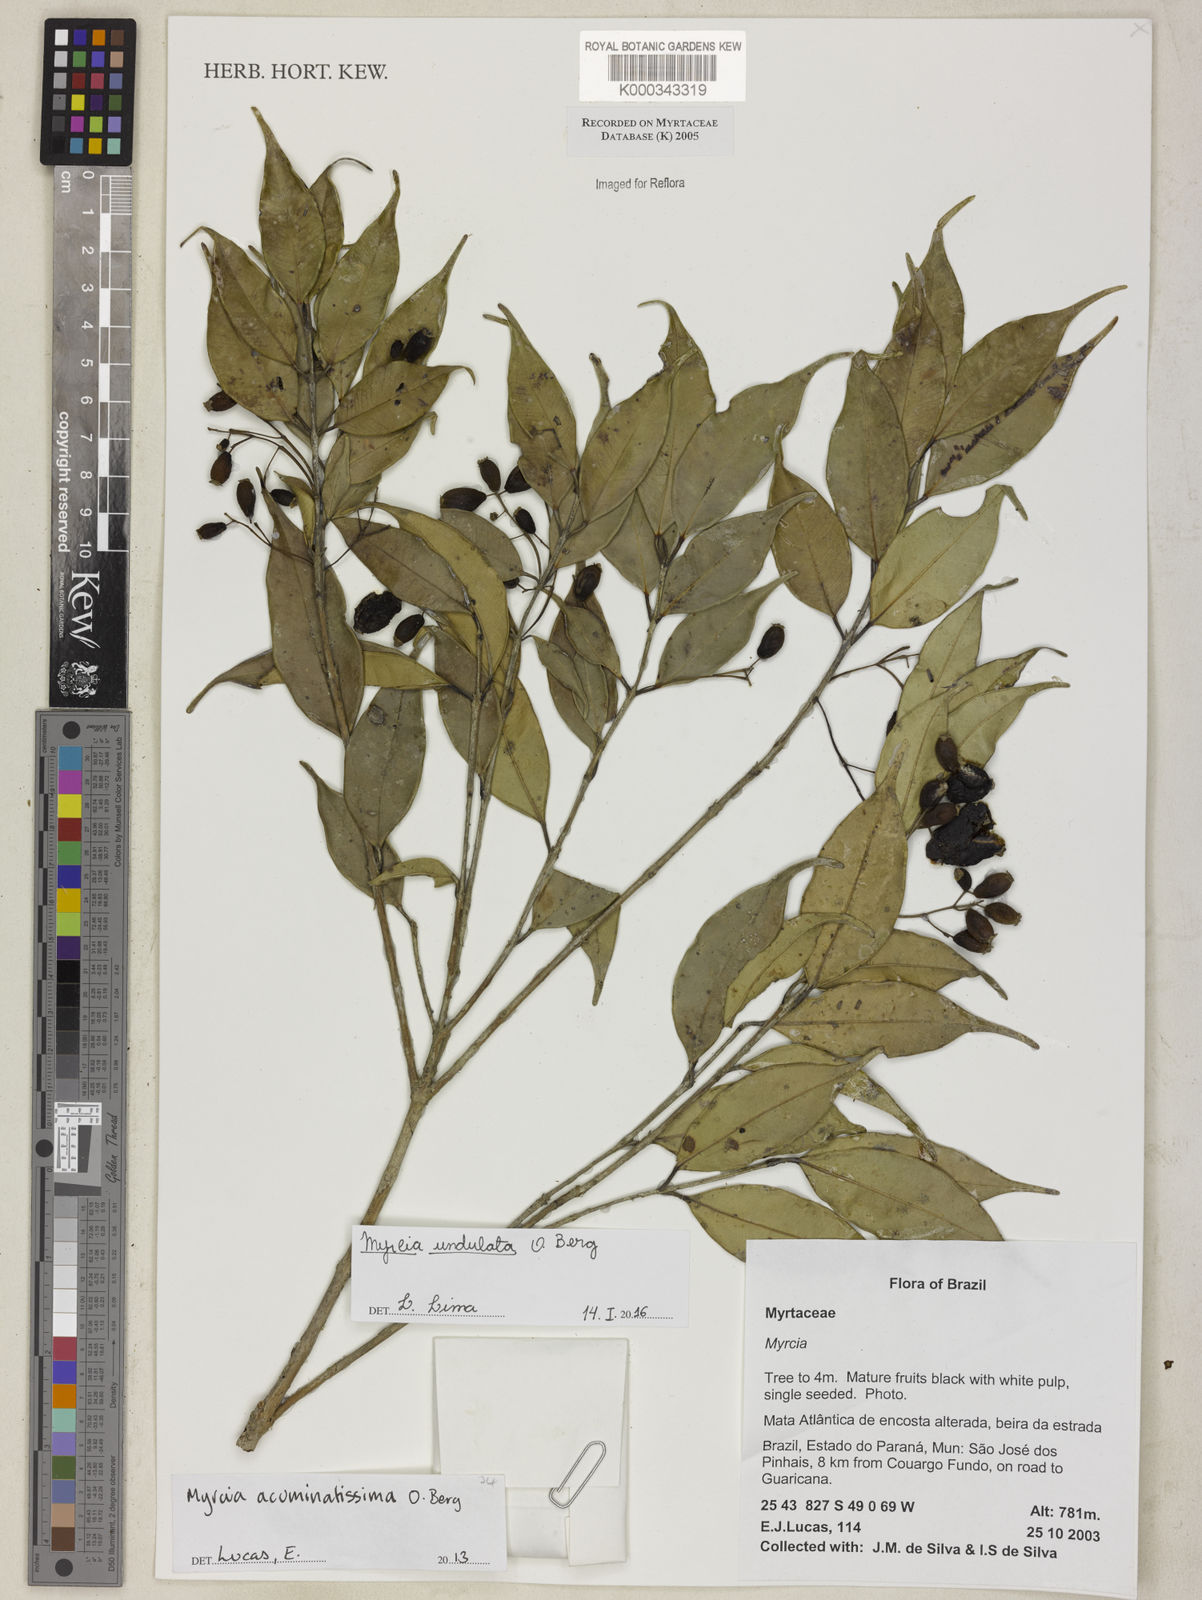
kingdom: Plantae
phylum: Tracheophyta
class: Magnoliopsida
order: Myrtales
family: Myrtaceae
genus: Myrcia
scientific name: Myrcia
